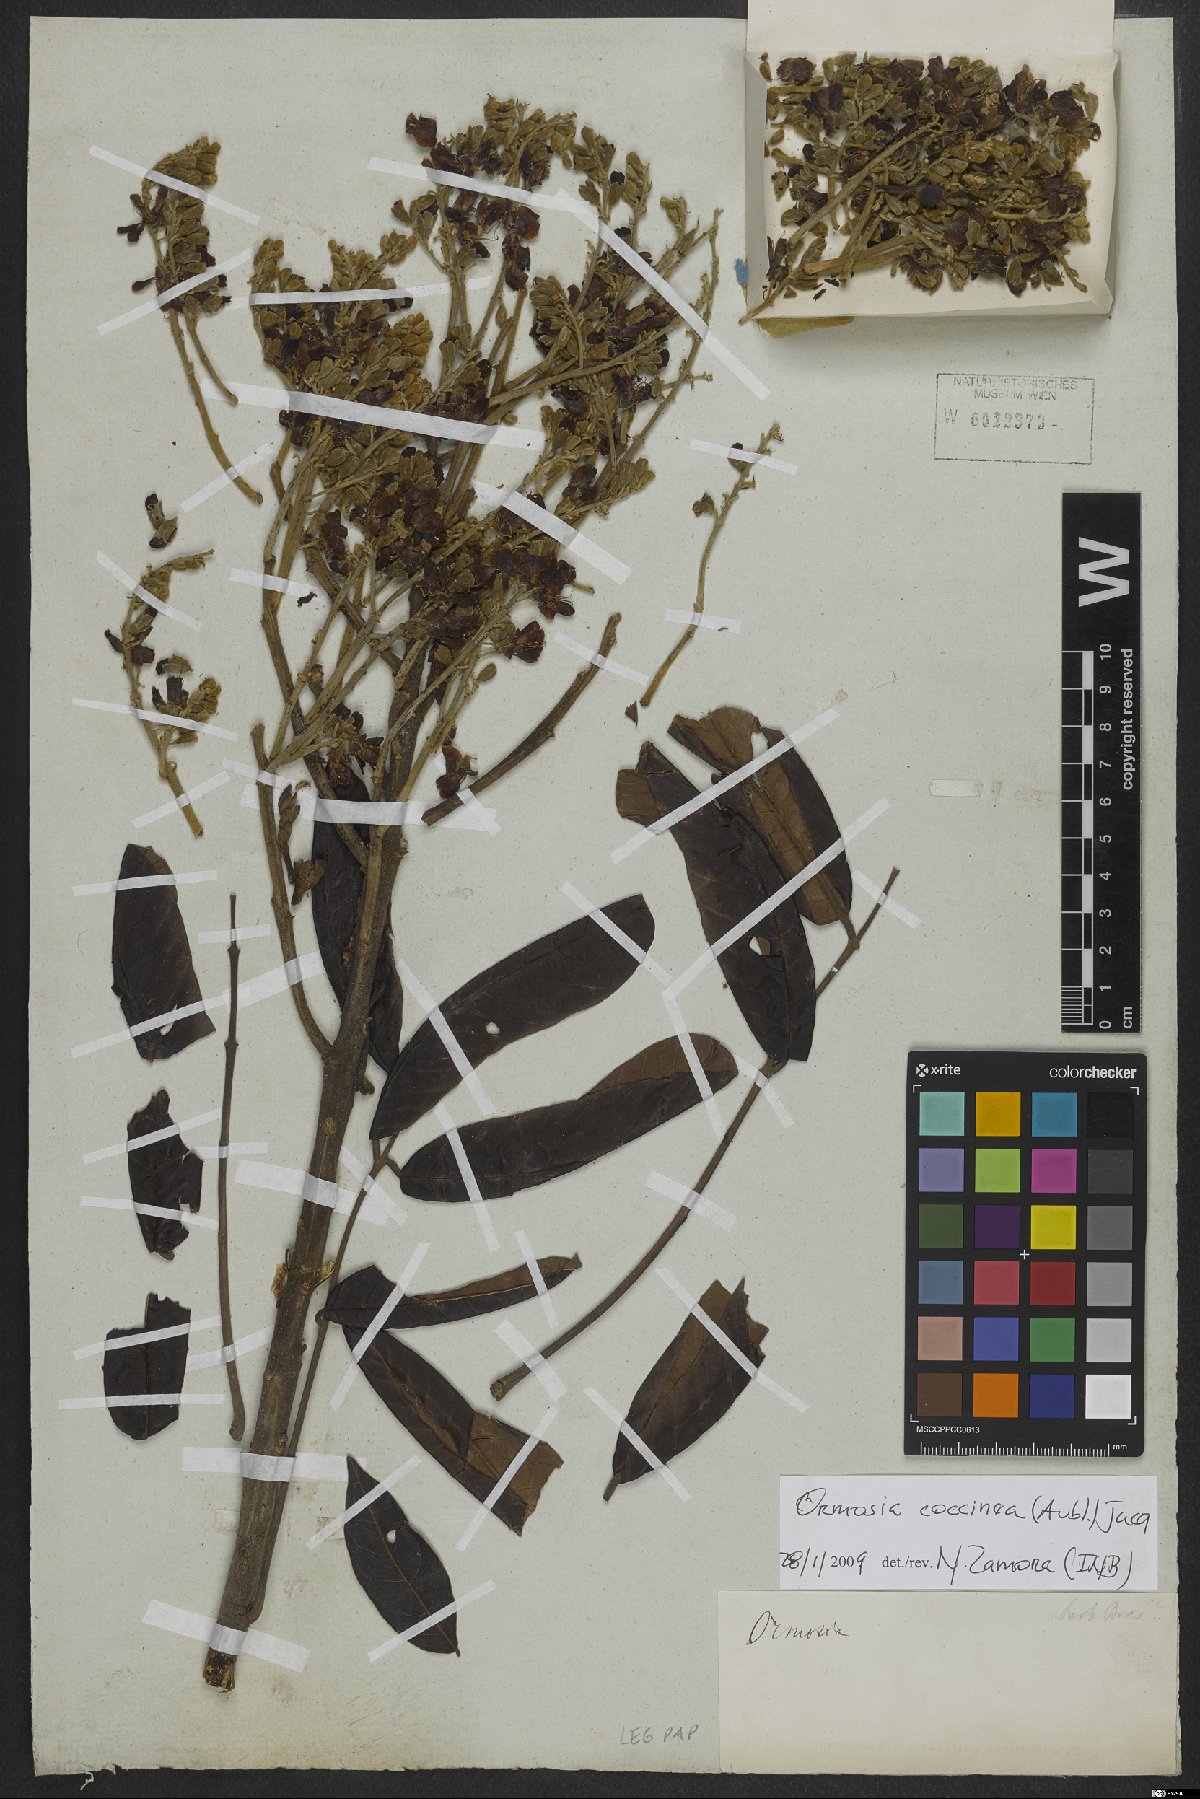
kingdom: Plantae
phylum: Tracheophyta
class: Magnoliopsida
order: Fabales
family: Fabaceae
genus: Ormosia
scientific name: Ormosia coccinea
